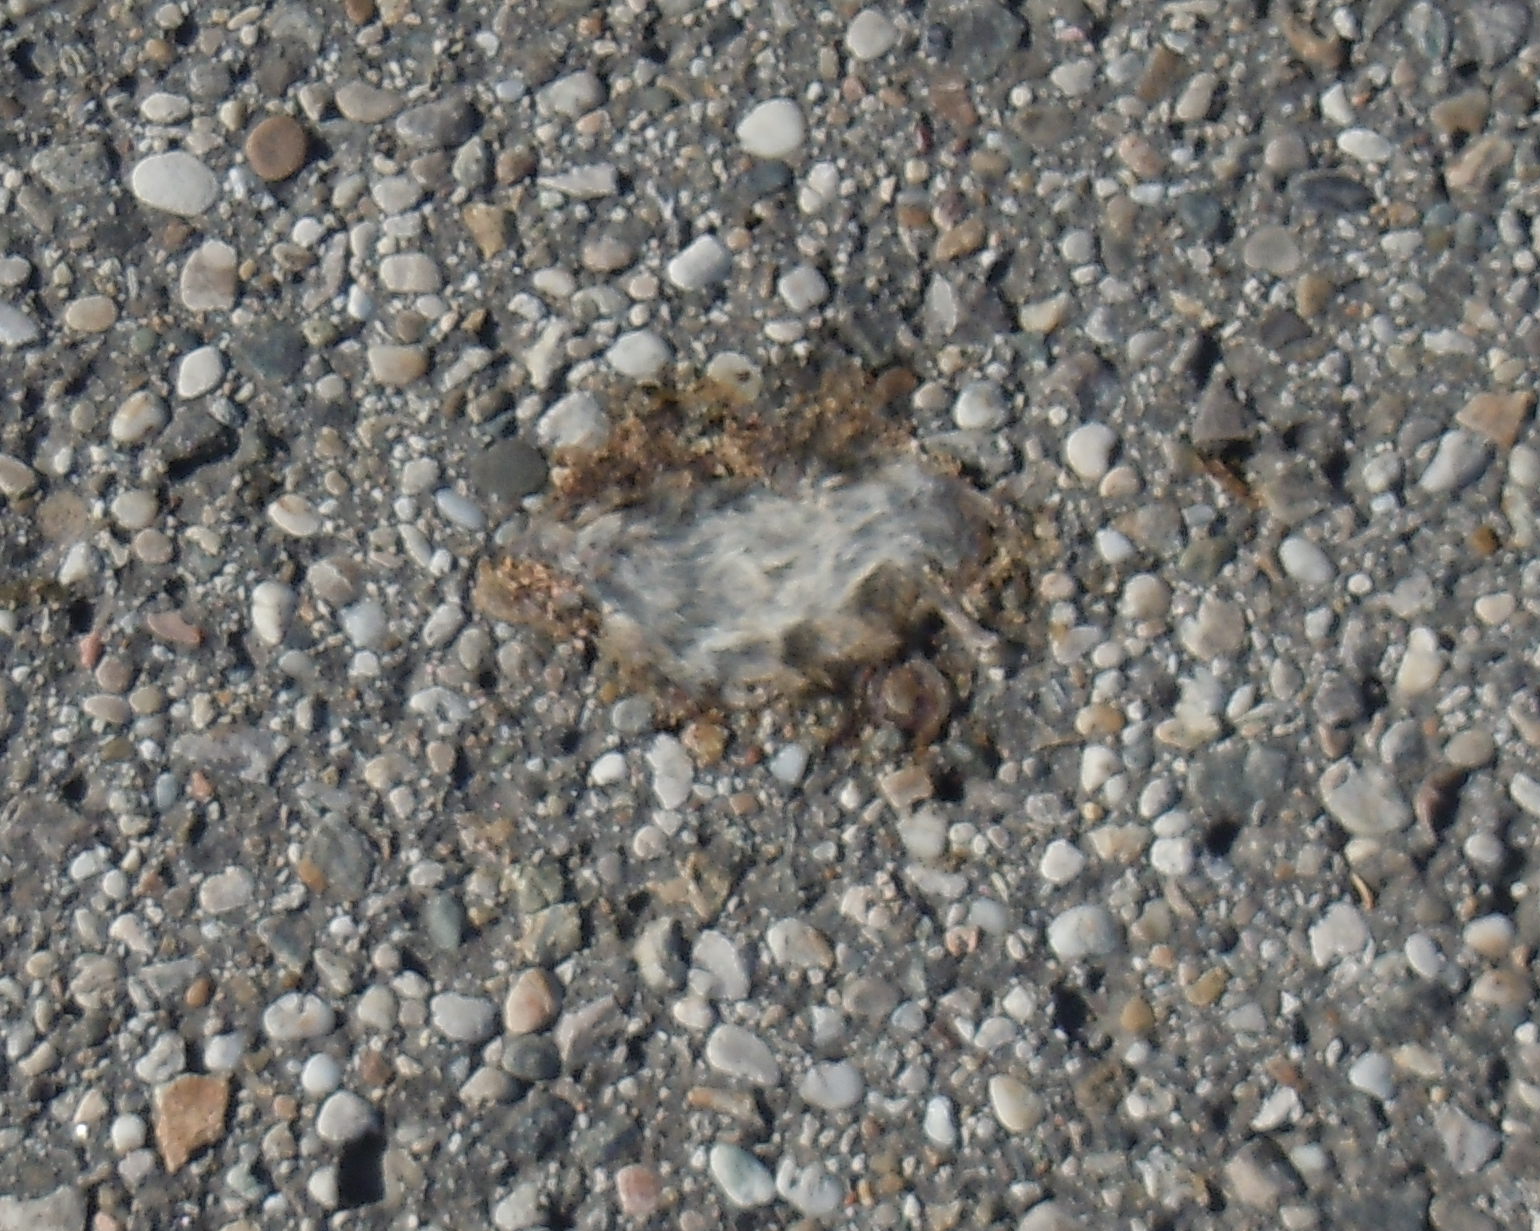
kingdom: Animalia
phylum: Chordata
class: Mammalia
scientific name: Mammalia
